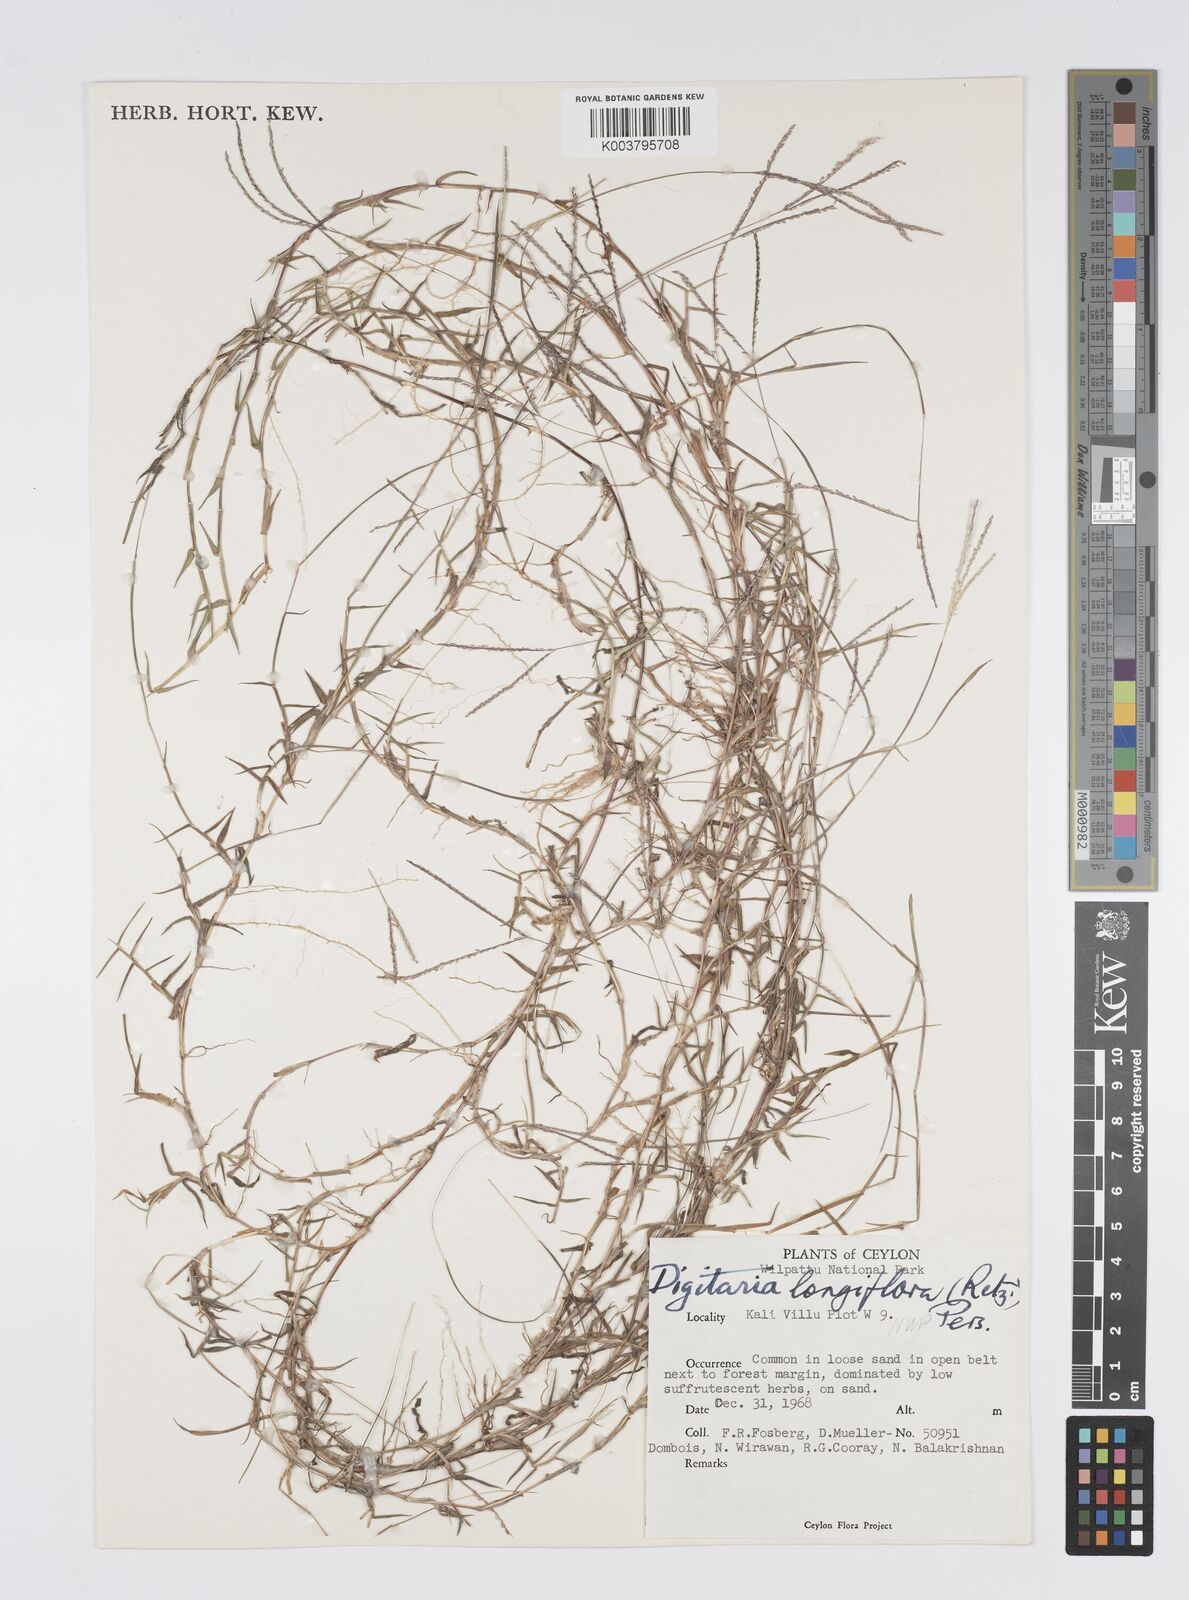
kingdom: Plantae
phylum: Tracheophyta
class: Liliopsida
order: Poales
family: Poaceae
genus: Digitaria
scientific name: Digitaria longiflora
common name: Wire crabgrass
